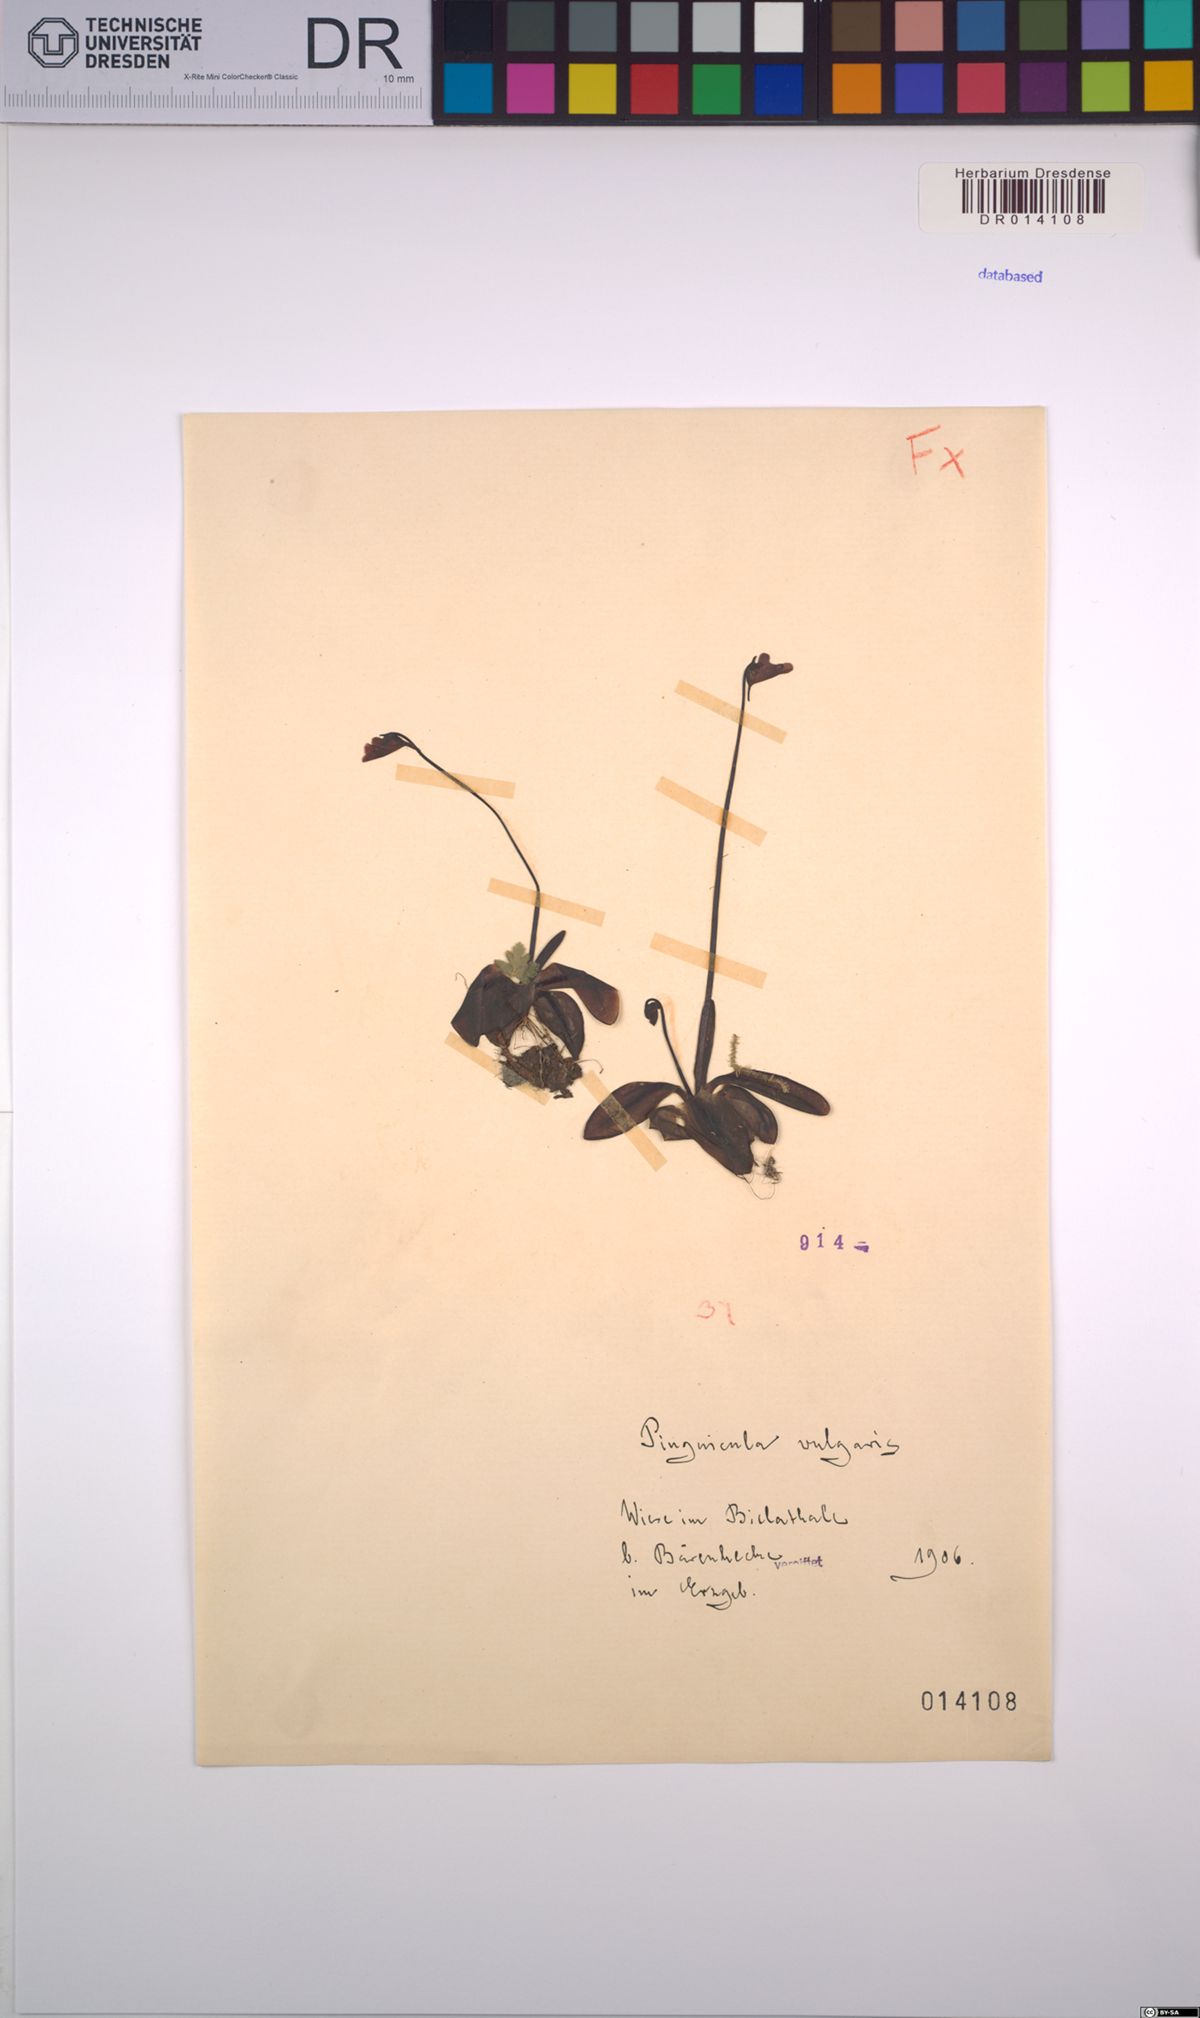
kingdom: Plantae
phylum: Tracheophyta
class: Magnoliopsida
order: Lamiales
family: Lentibulariaceae
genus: Pinguicula
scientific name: Pinguicula vulgaris
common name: Common butterwort
